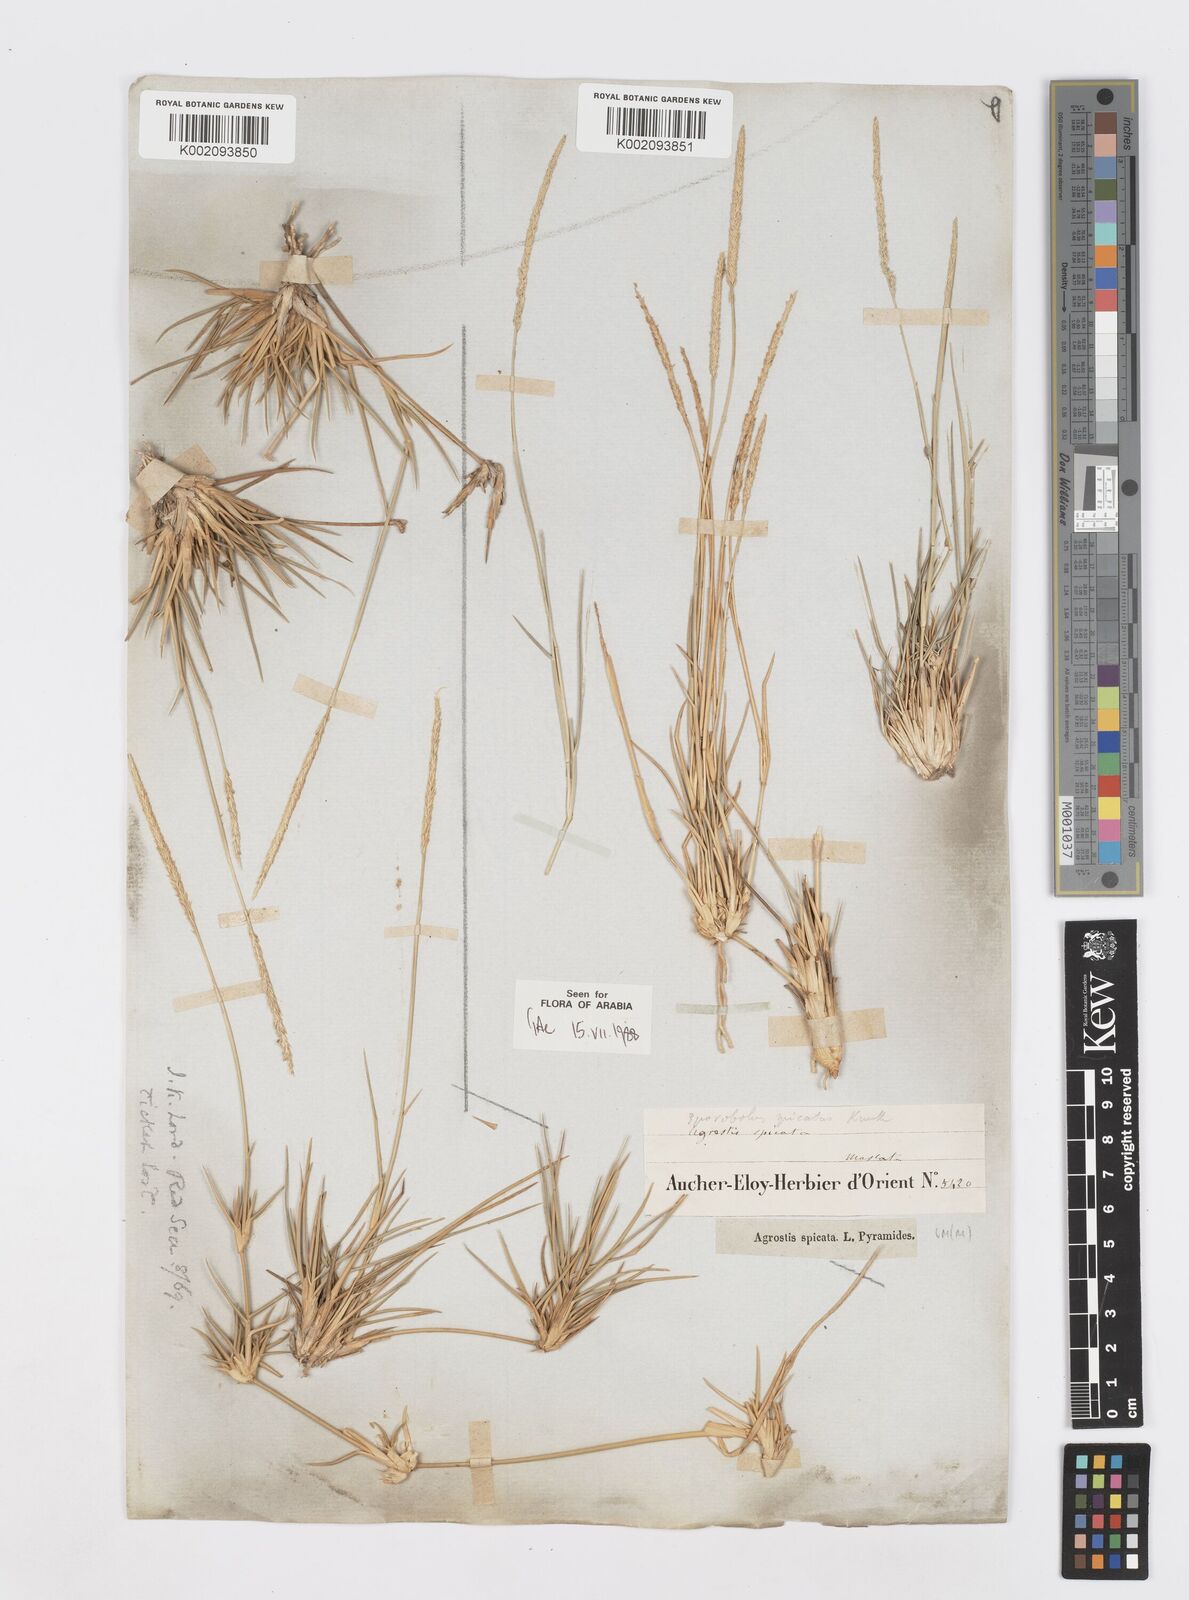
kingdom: Plantae
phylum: Tracheophyta
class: Liliopsida
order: Poales
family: Poaceae
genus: Sporobolus
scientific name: Sporobolus spicatus
